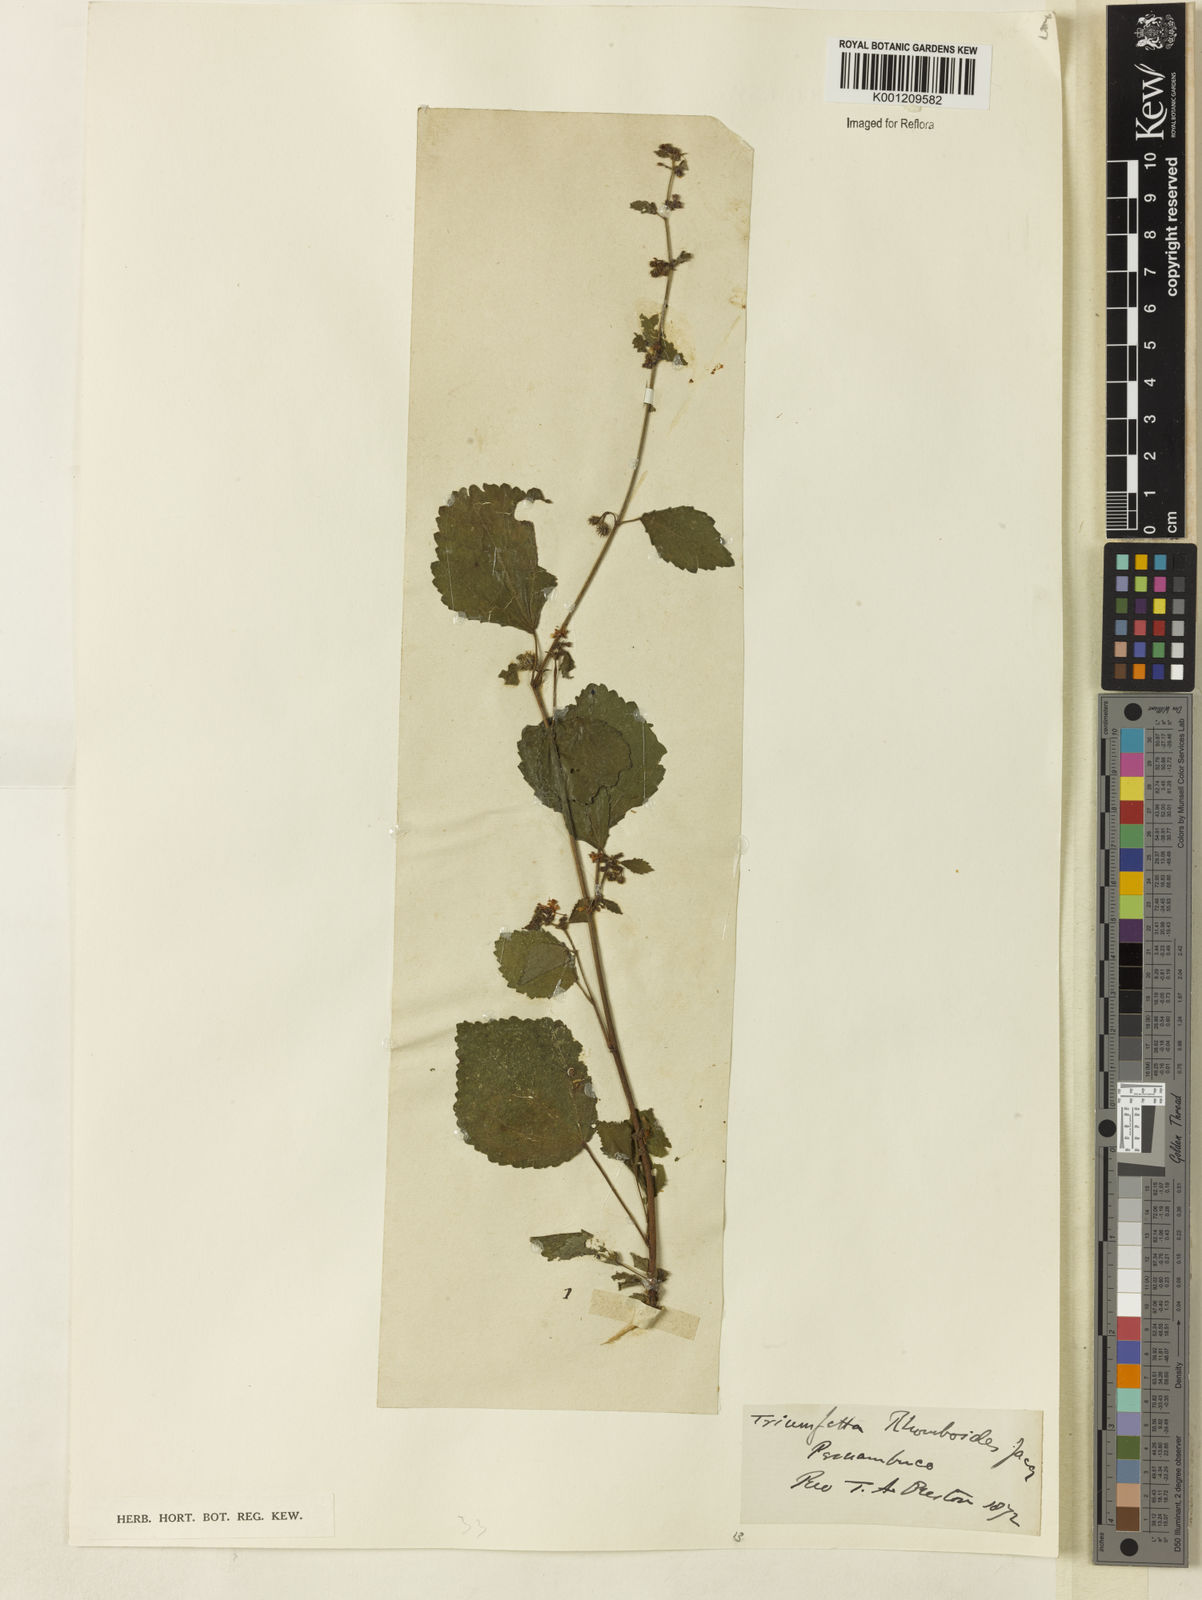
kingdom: Plantae
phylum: Tracheophyta
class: Magnoliopsida
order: Malvales
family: Malvaceae
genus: Triumfetta
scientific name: Triumfetta rhomboidea
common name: Diamond burbark
